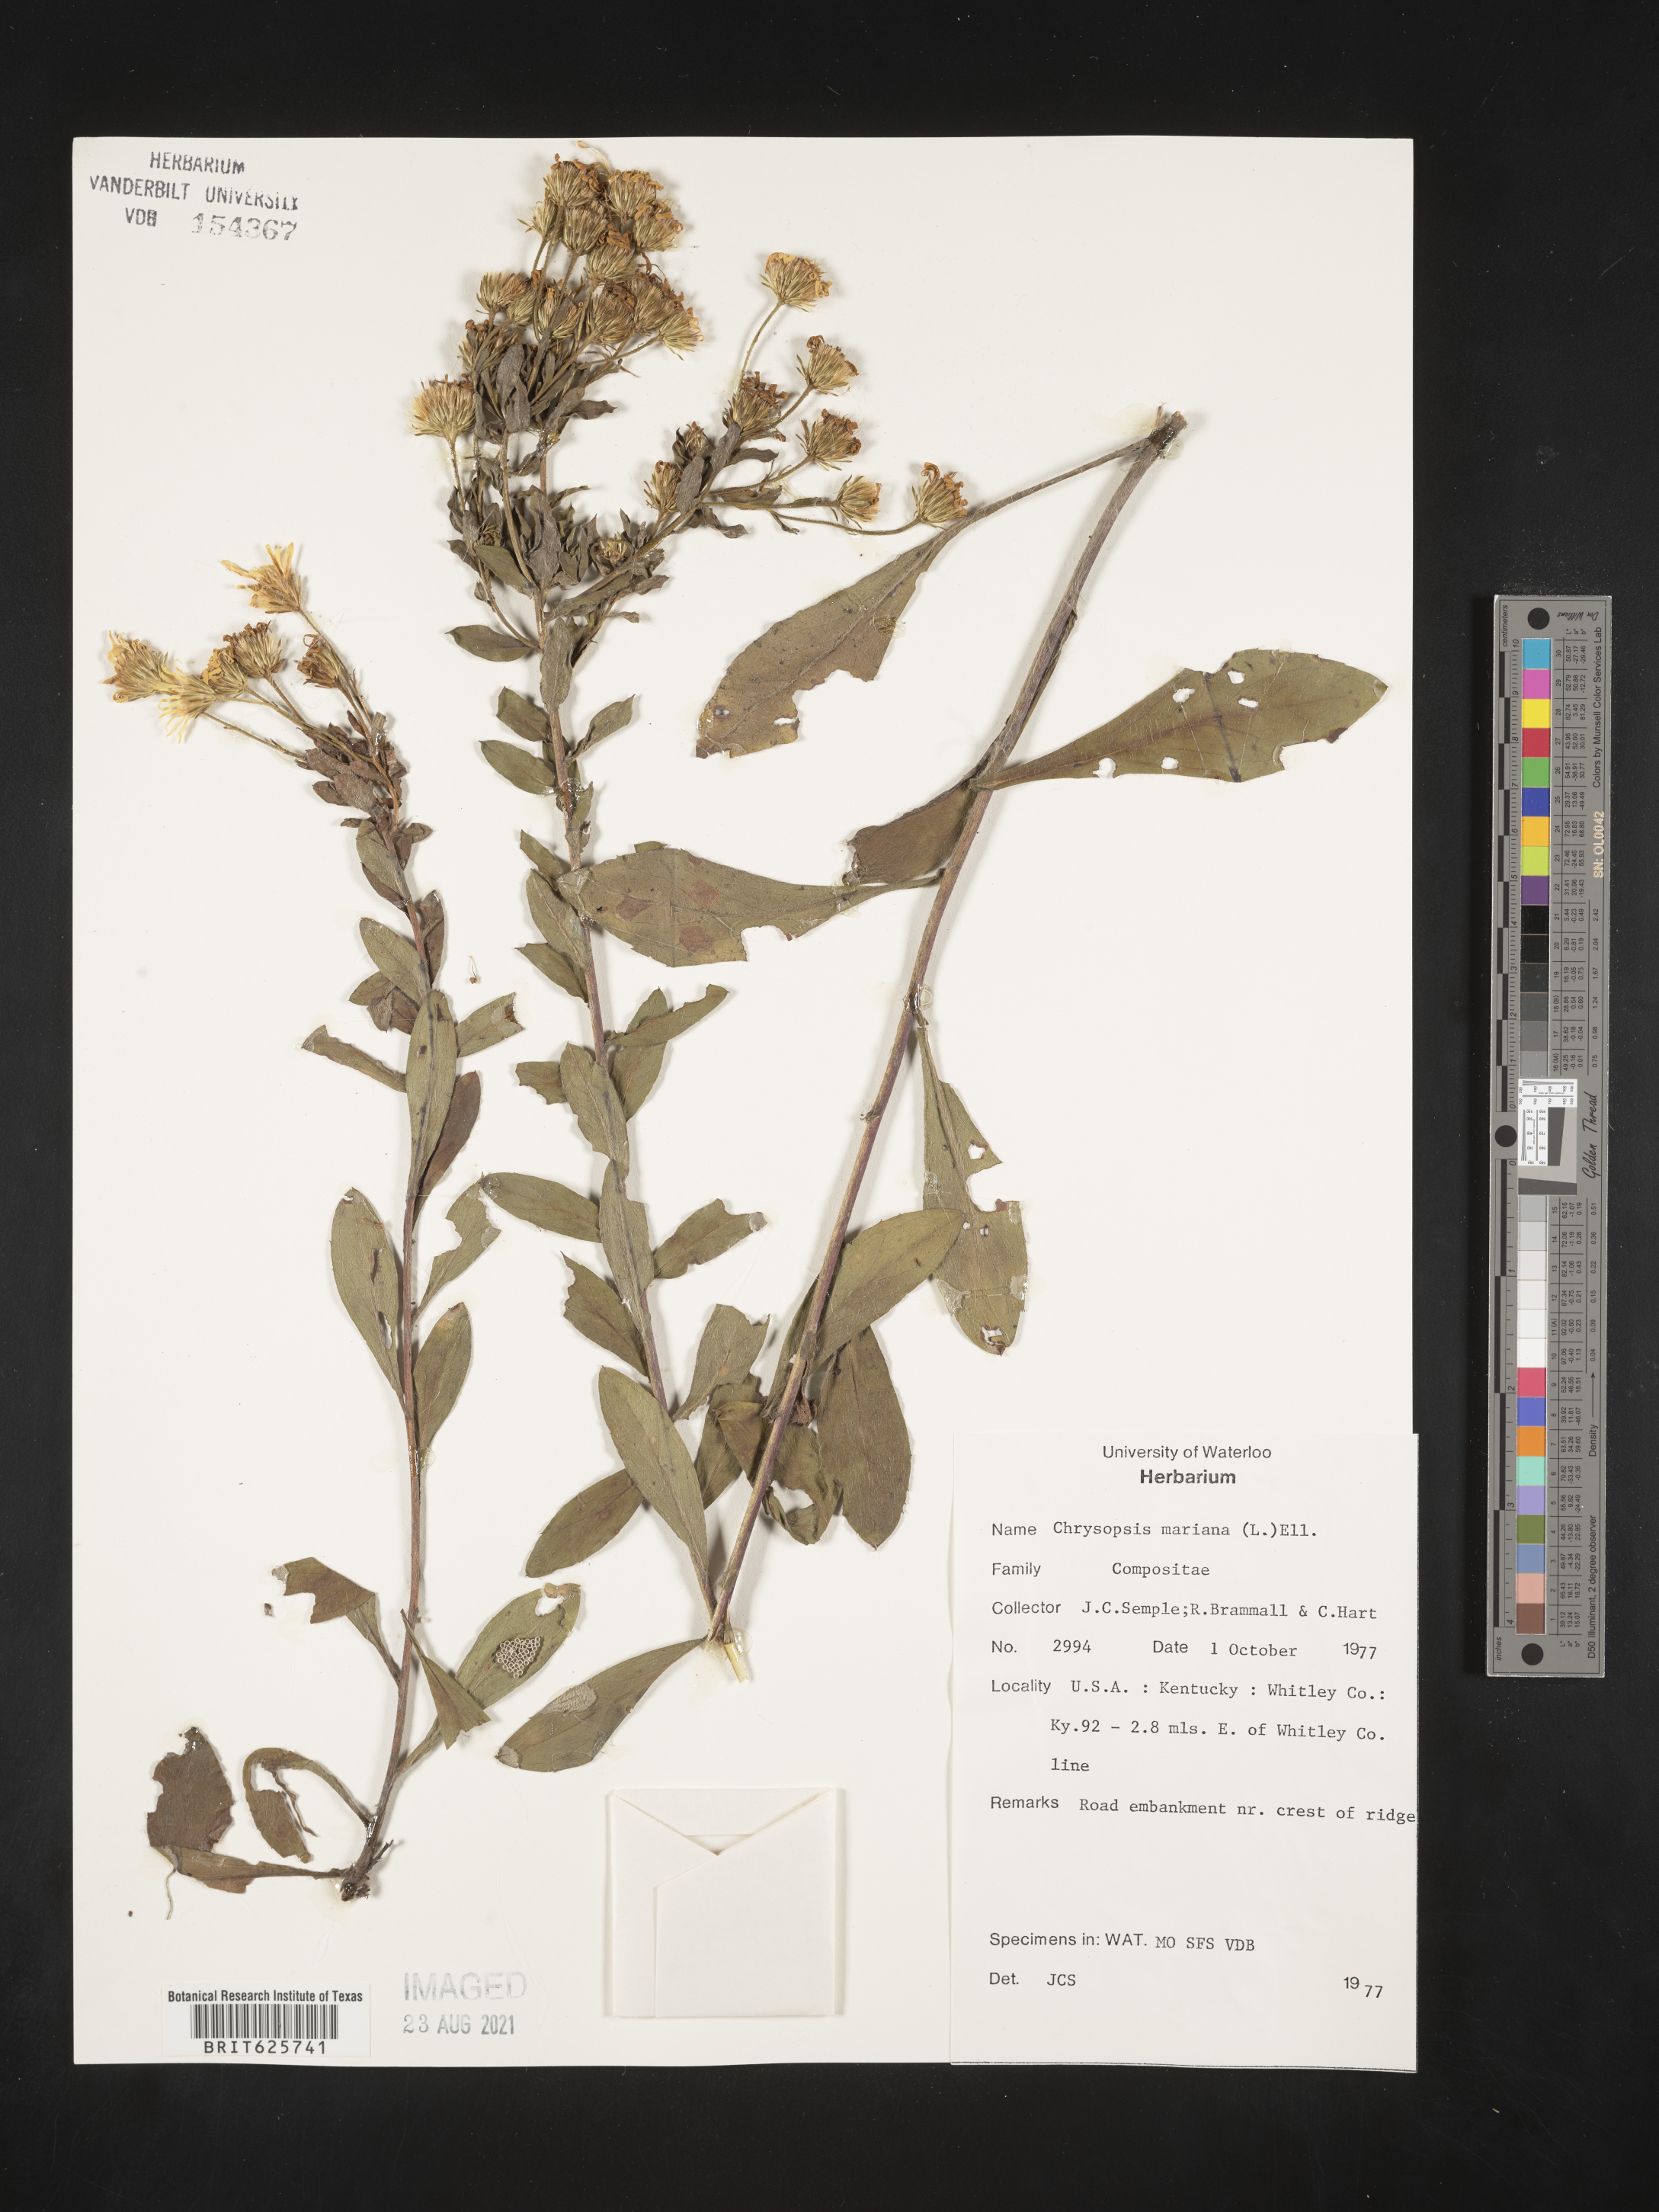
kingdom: Plantae
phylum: Tracheophyta
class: Magnoliopsida
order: Asterales
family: Asteraceae
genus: Chrysopsis
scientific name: Chrysopsis mariana
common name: Maryland golden-aster
